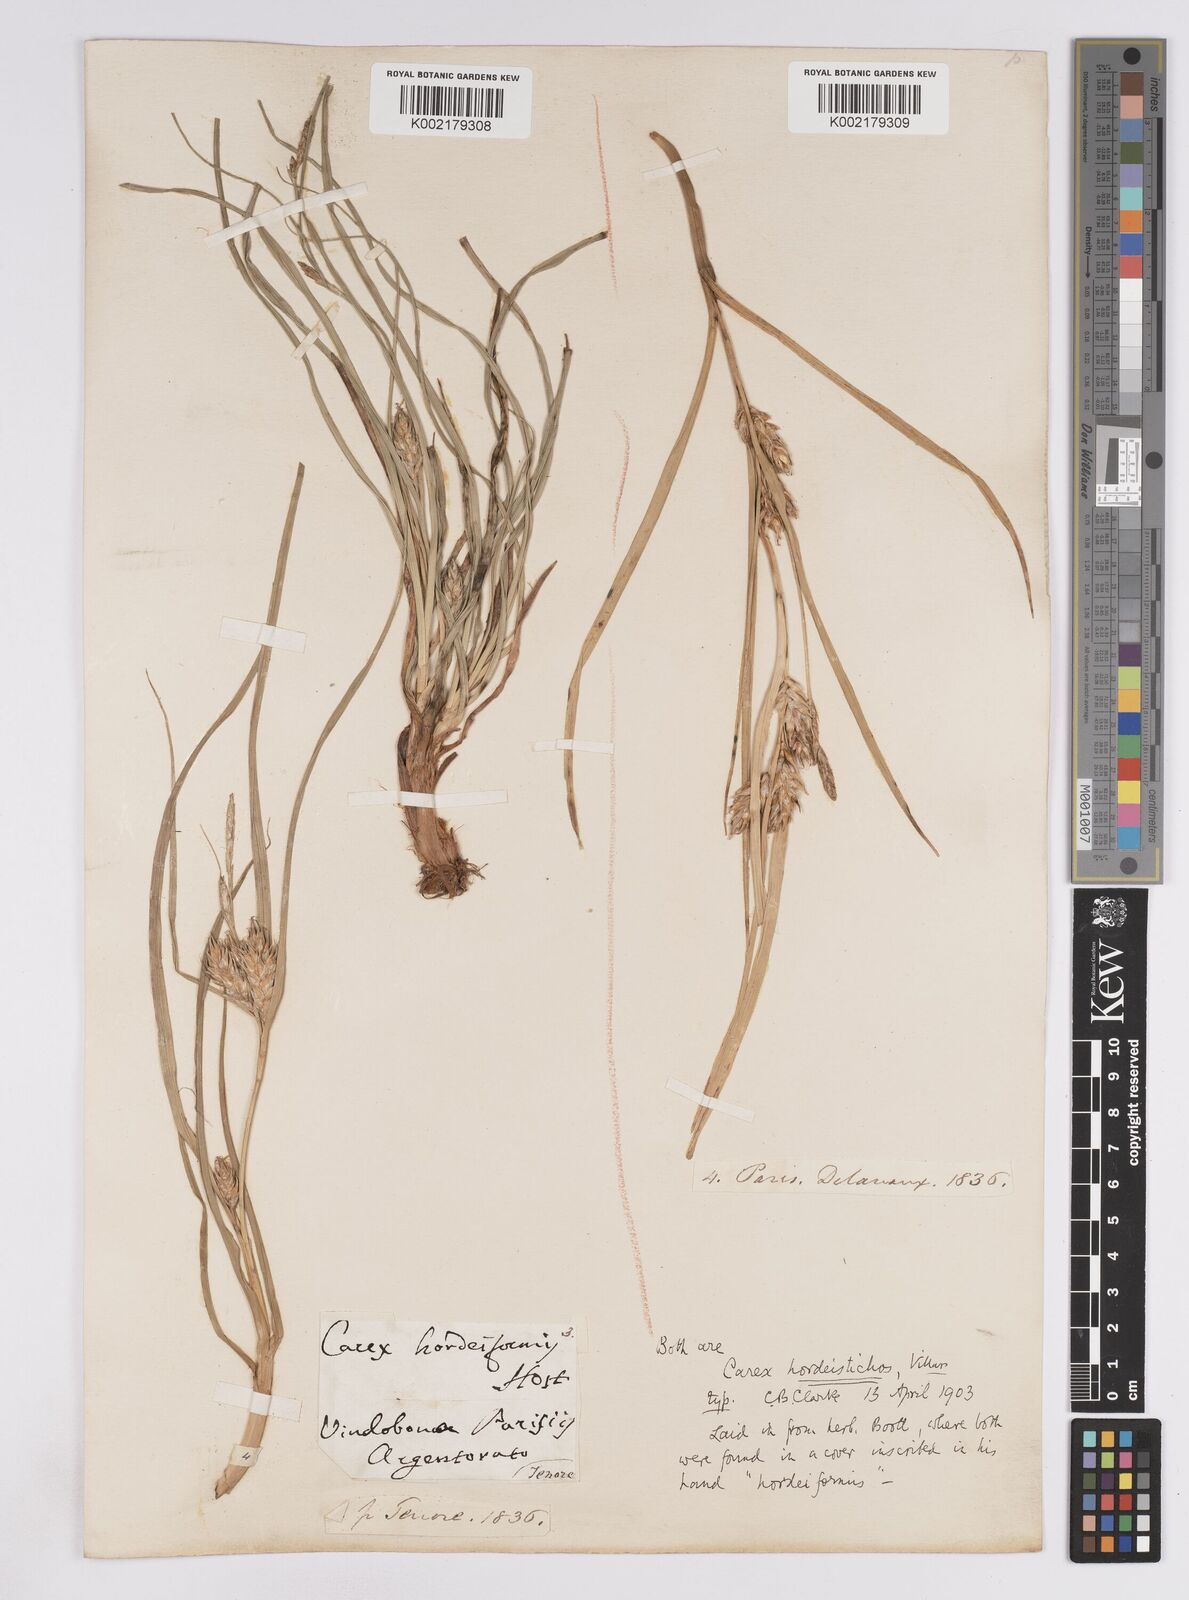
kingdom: Plantae
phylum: Tracheophyta
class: Liliopsida
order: Poales
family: Cyperaceae
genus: Carex
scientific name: Carex hordeistichos
